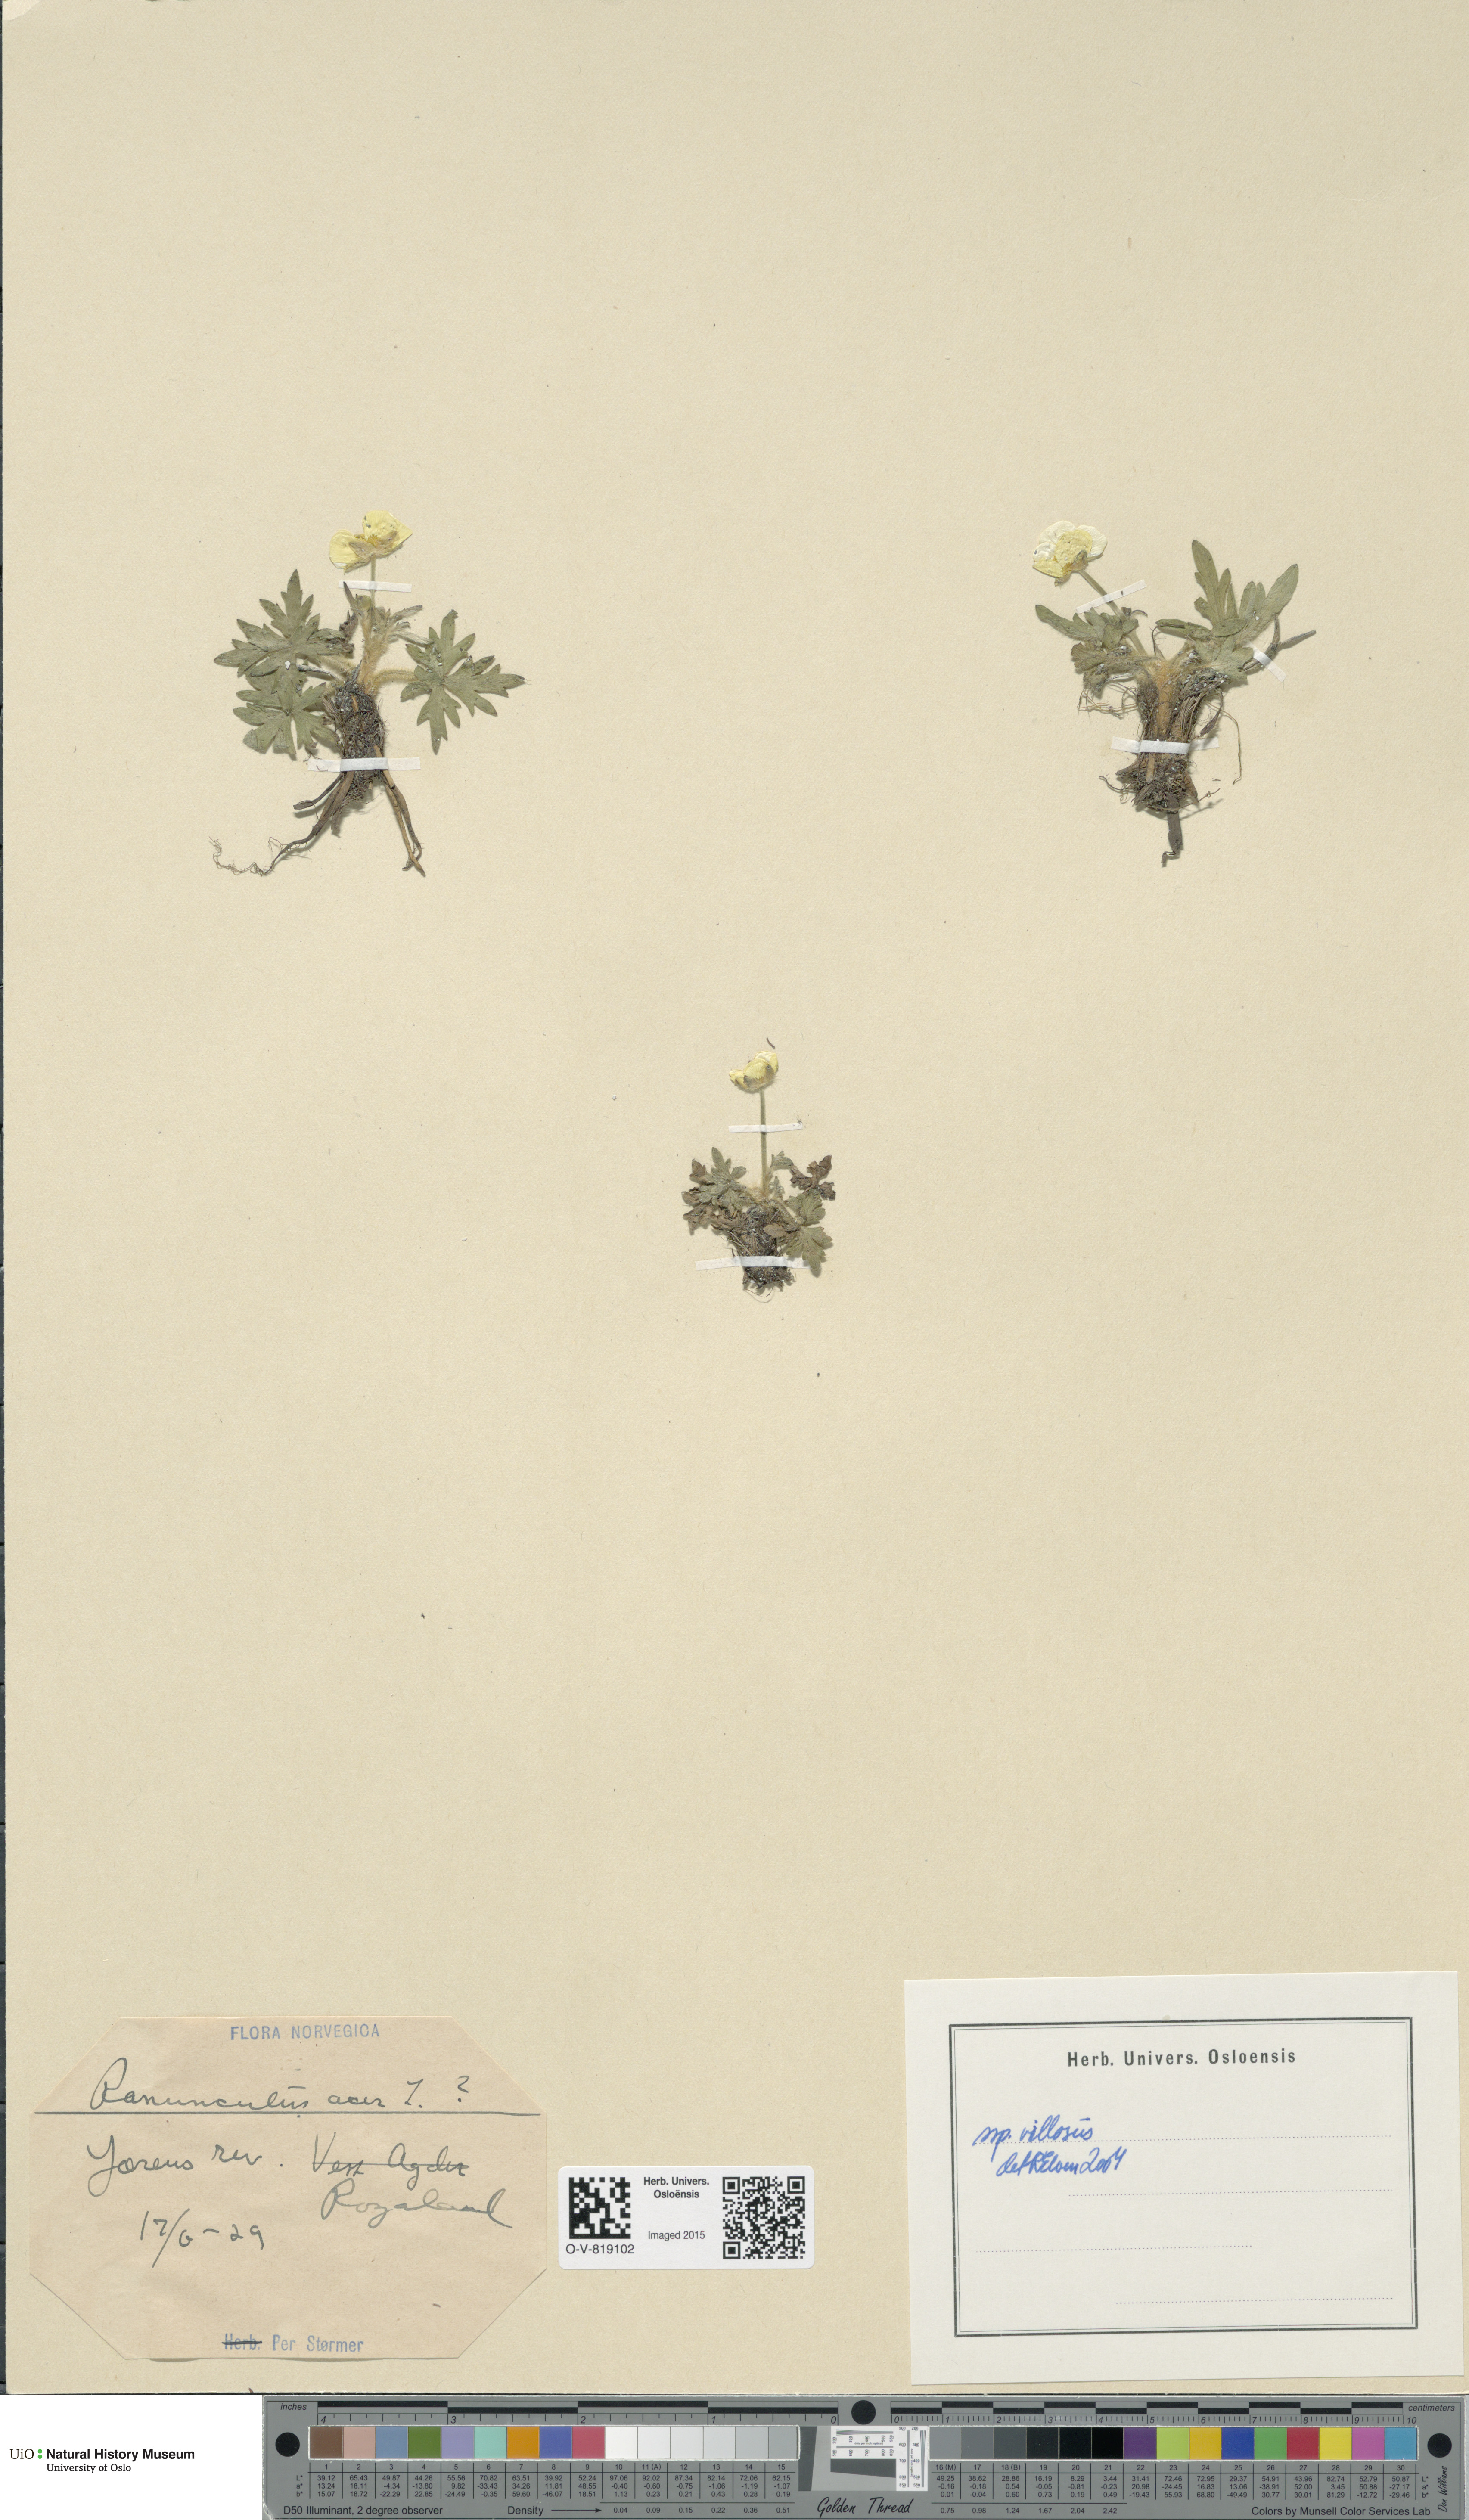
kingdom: Plantae
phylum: Tracheophyta
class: Magnoliopsida
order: Ranunculales
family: Ranunculaceae
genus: Ranunculus
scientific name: Ranunculus propinquus
